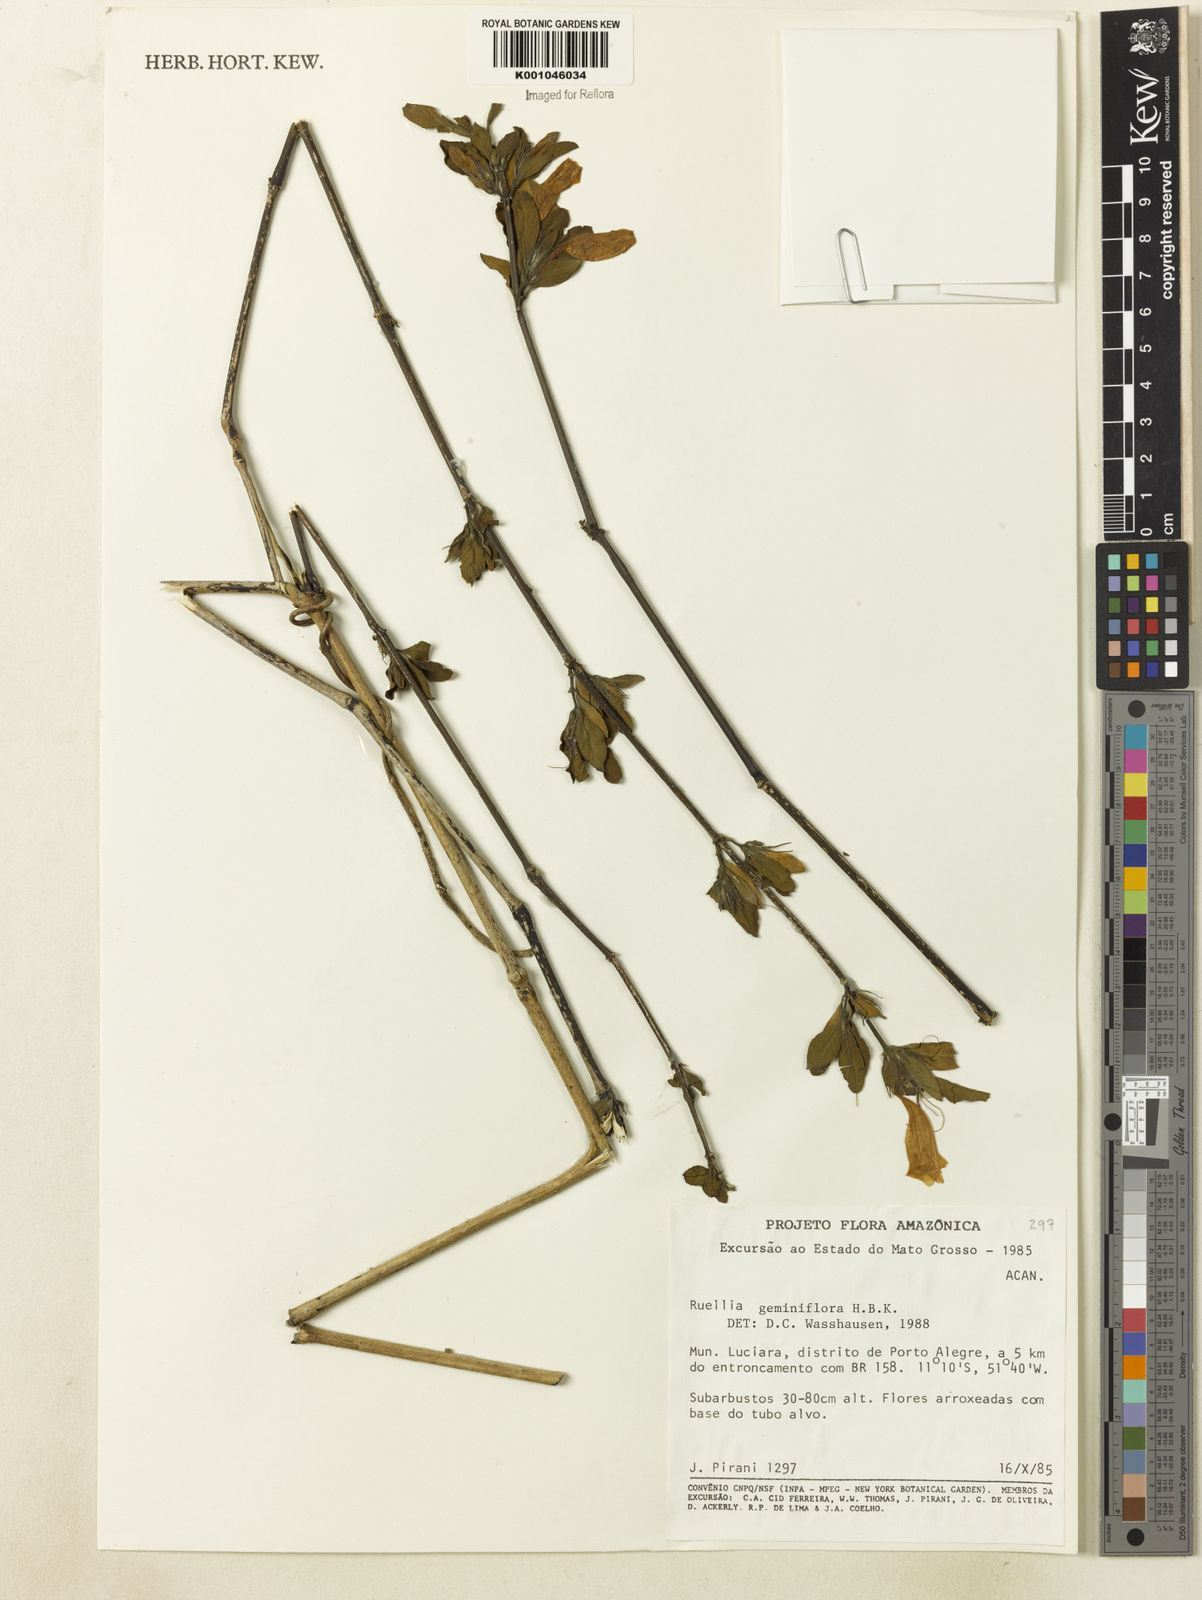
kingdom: Plantae
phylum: Tracheophyta
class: Magnoliopsida
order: Lamiales
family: Acanthaceae
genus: Ruellia
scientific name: Ruellia geminiflora
